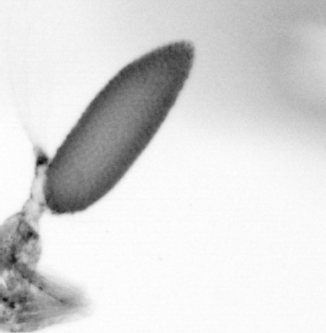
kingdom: Animalia
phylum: Arthropoda
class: Copepoda
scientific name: Copepoda
